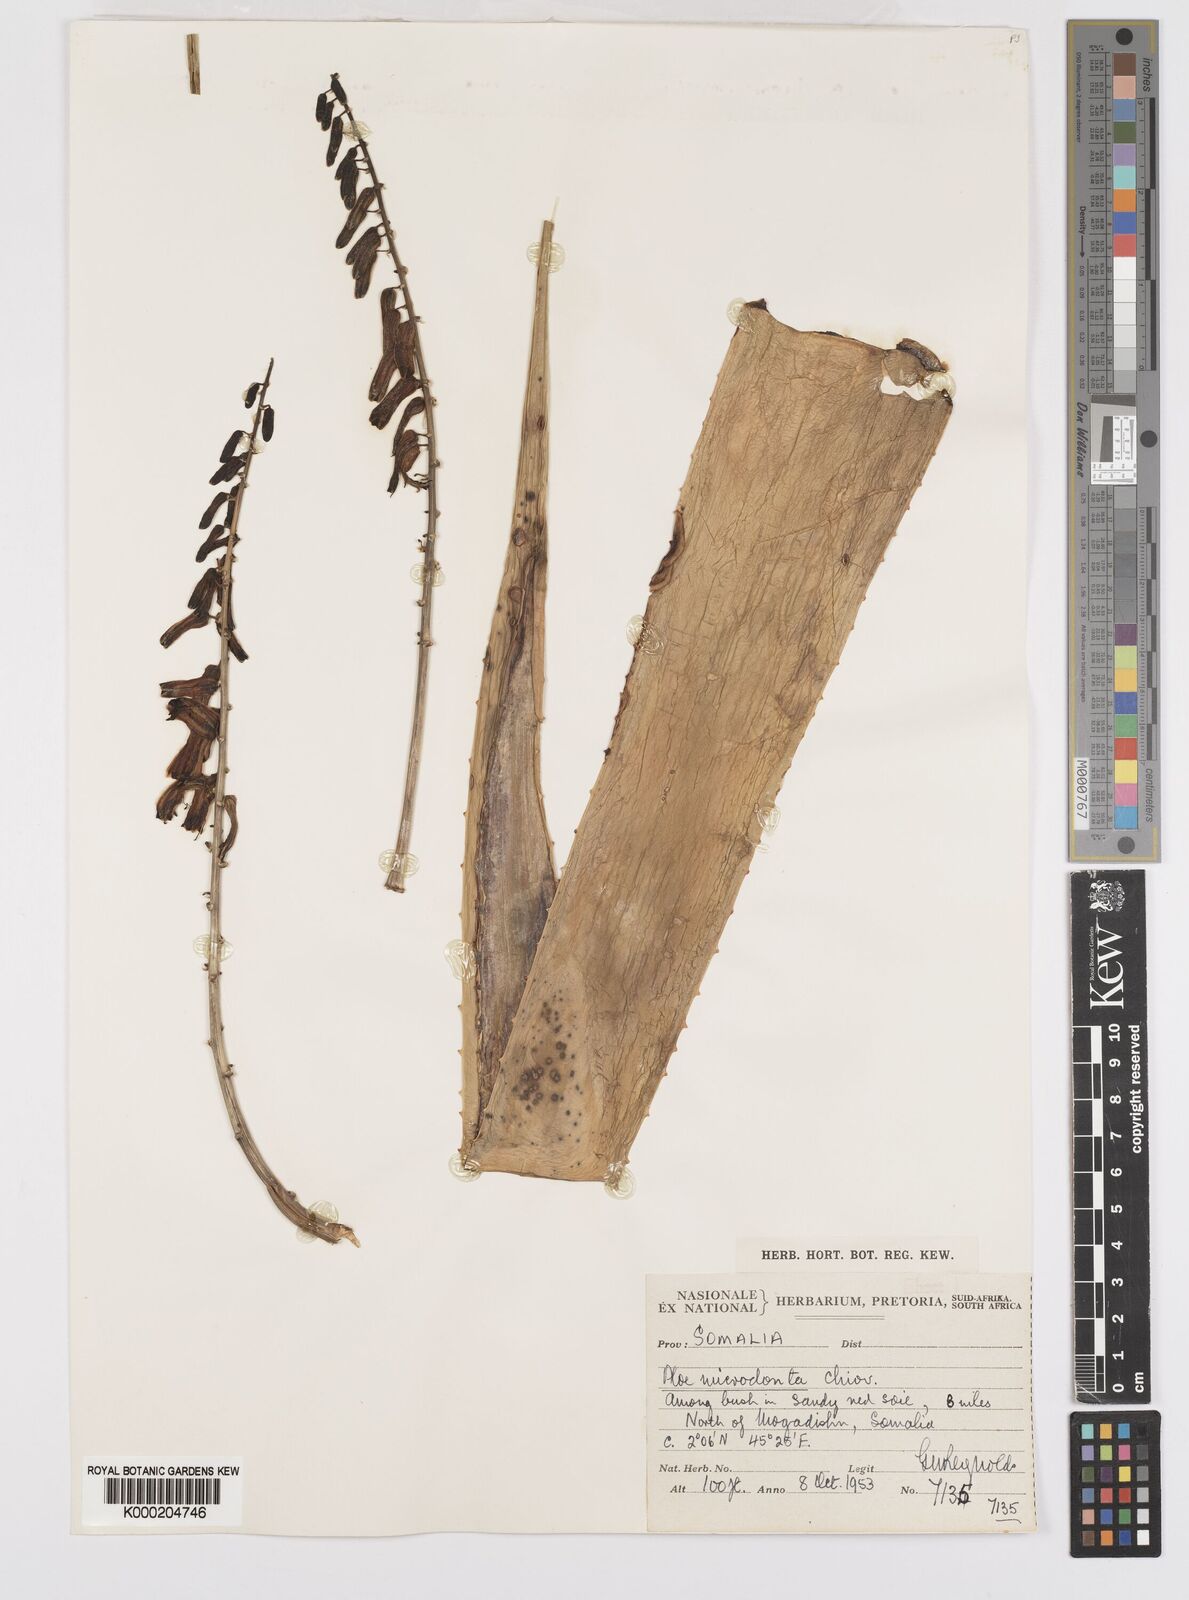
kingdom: Plantae
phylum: Tracheophyta
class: Liliopsida
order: Asparagales
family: Asphodelaceae
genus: Aloe
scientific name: Aloe microdonta
